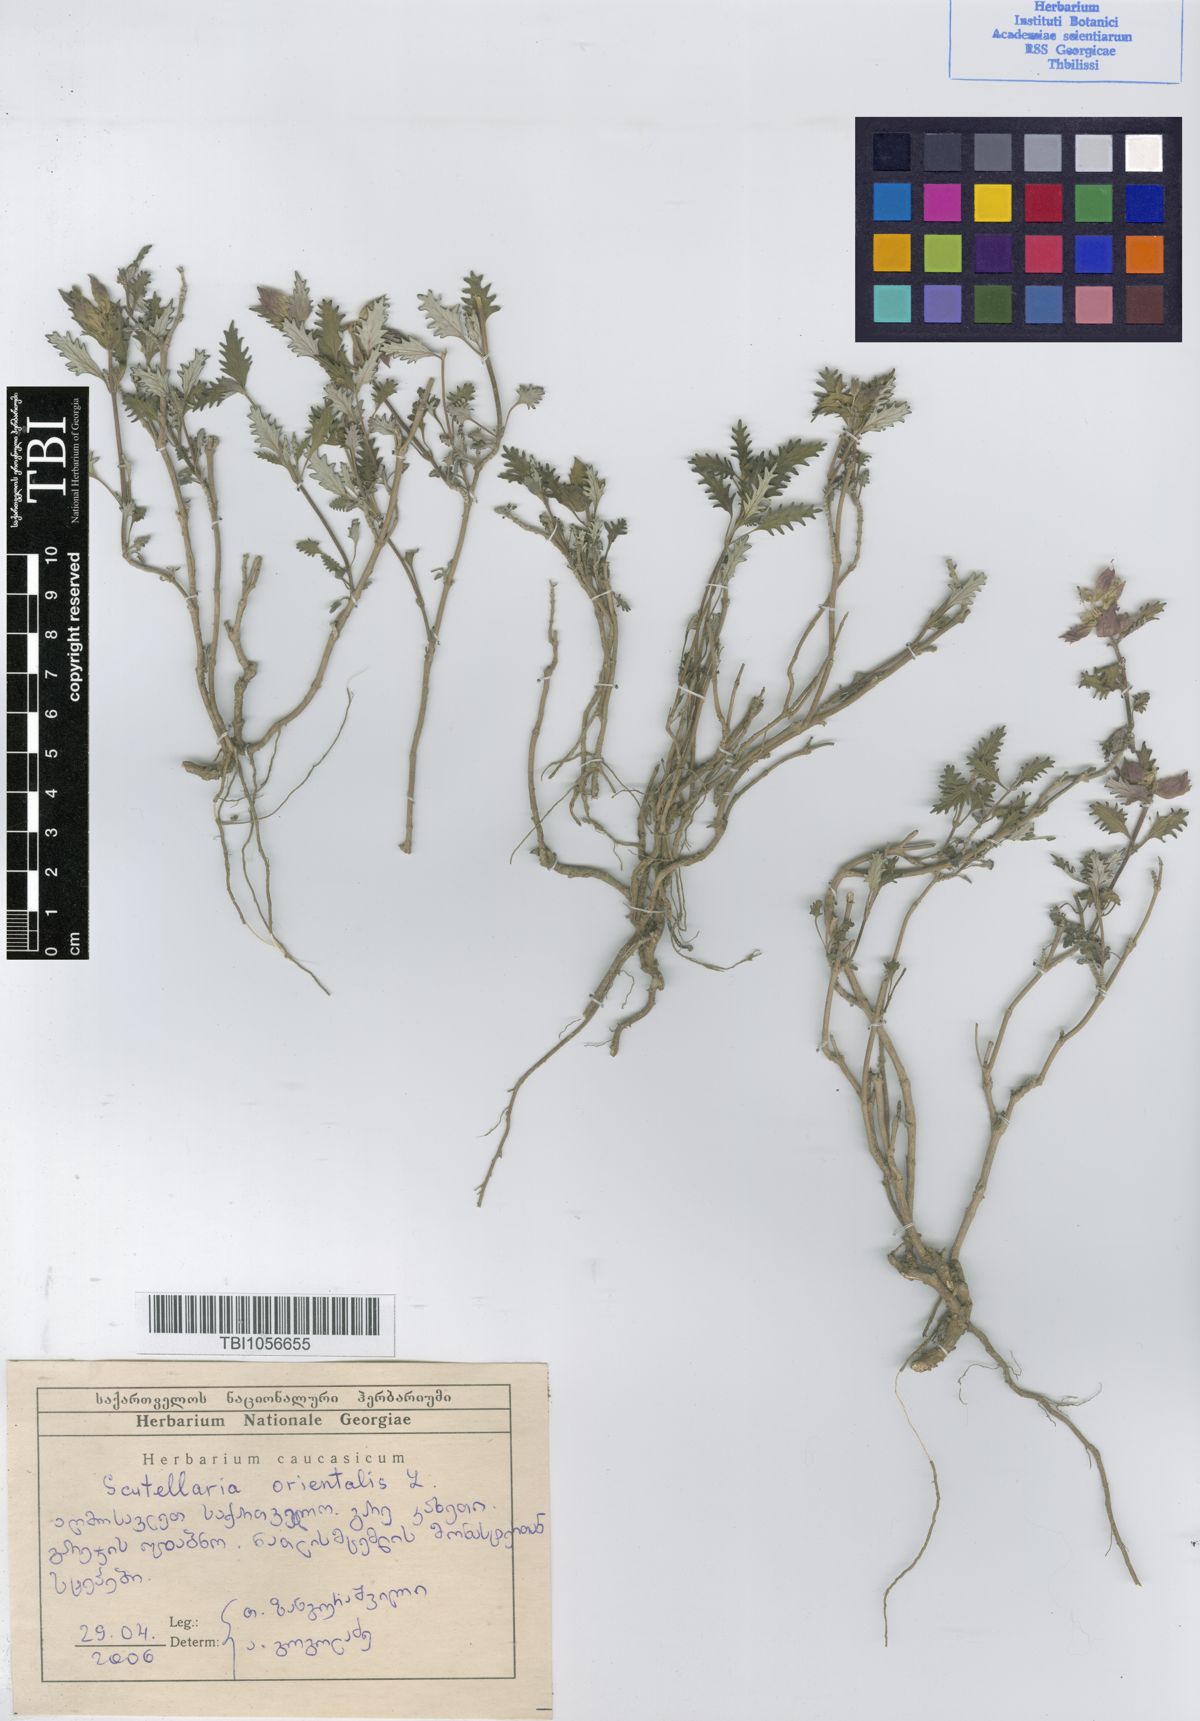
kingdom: Plantae
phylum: Tracheophyta
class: Magnoliopsida
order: Lamiales
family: Lamiaceae
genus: Scutellaria
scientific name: Scutellaria orientalis
